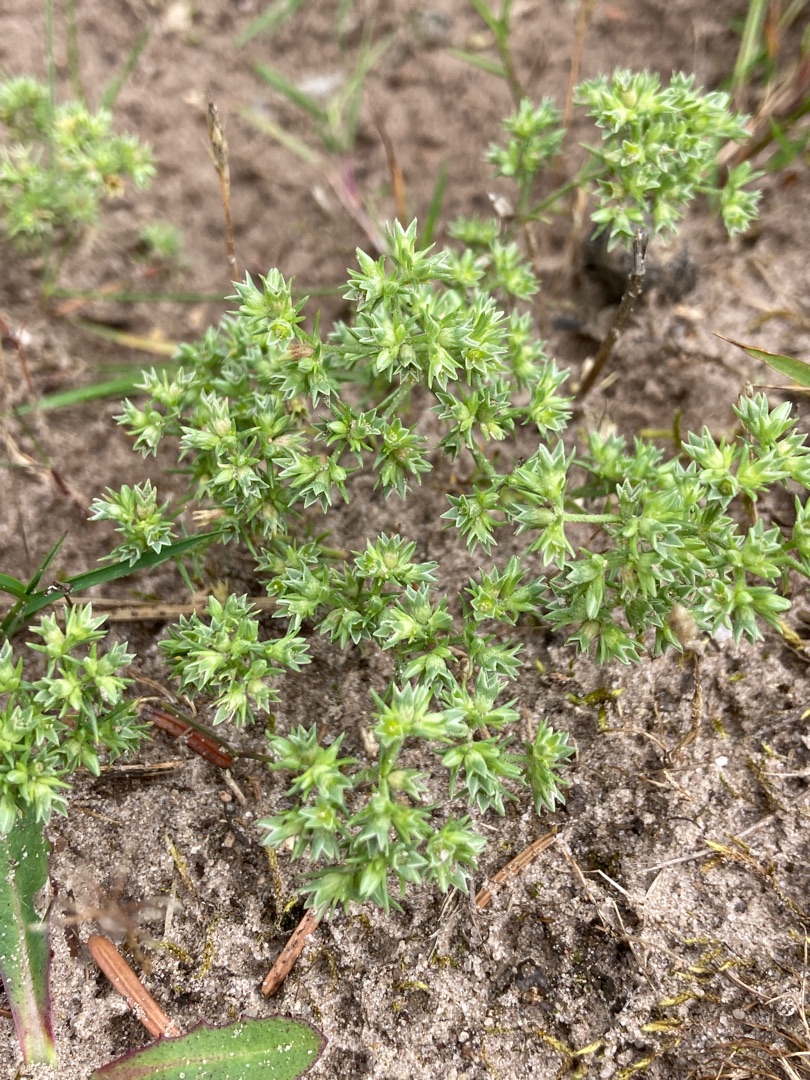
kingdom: Plantae
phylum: Tracheophyta
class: Magnoliopsida
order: Caryophyllales
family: Caryophyllaceae
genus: Scleranthus
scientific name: Scleranthus annuus
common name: Enårig knavel
